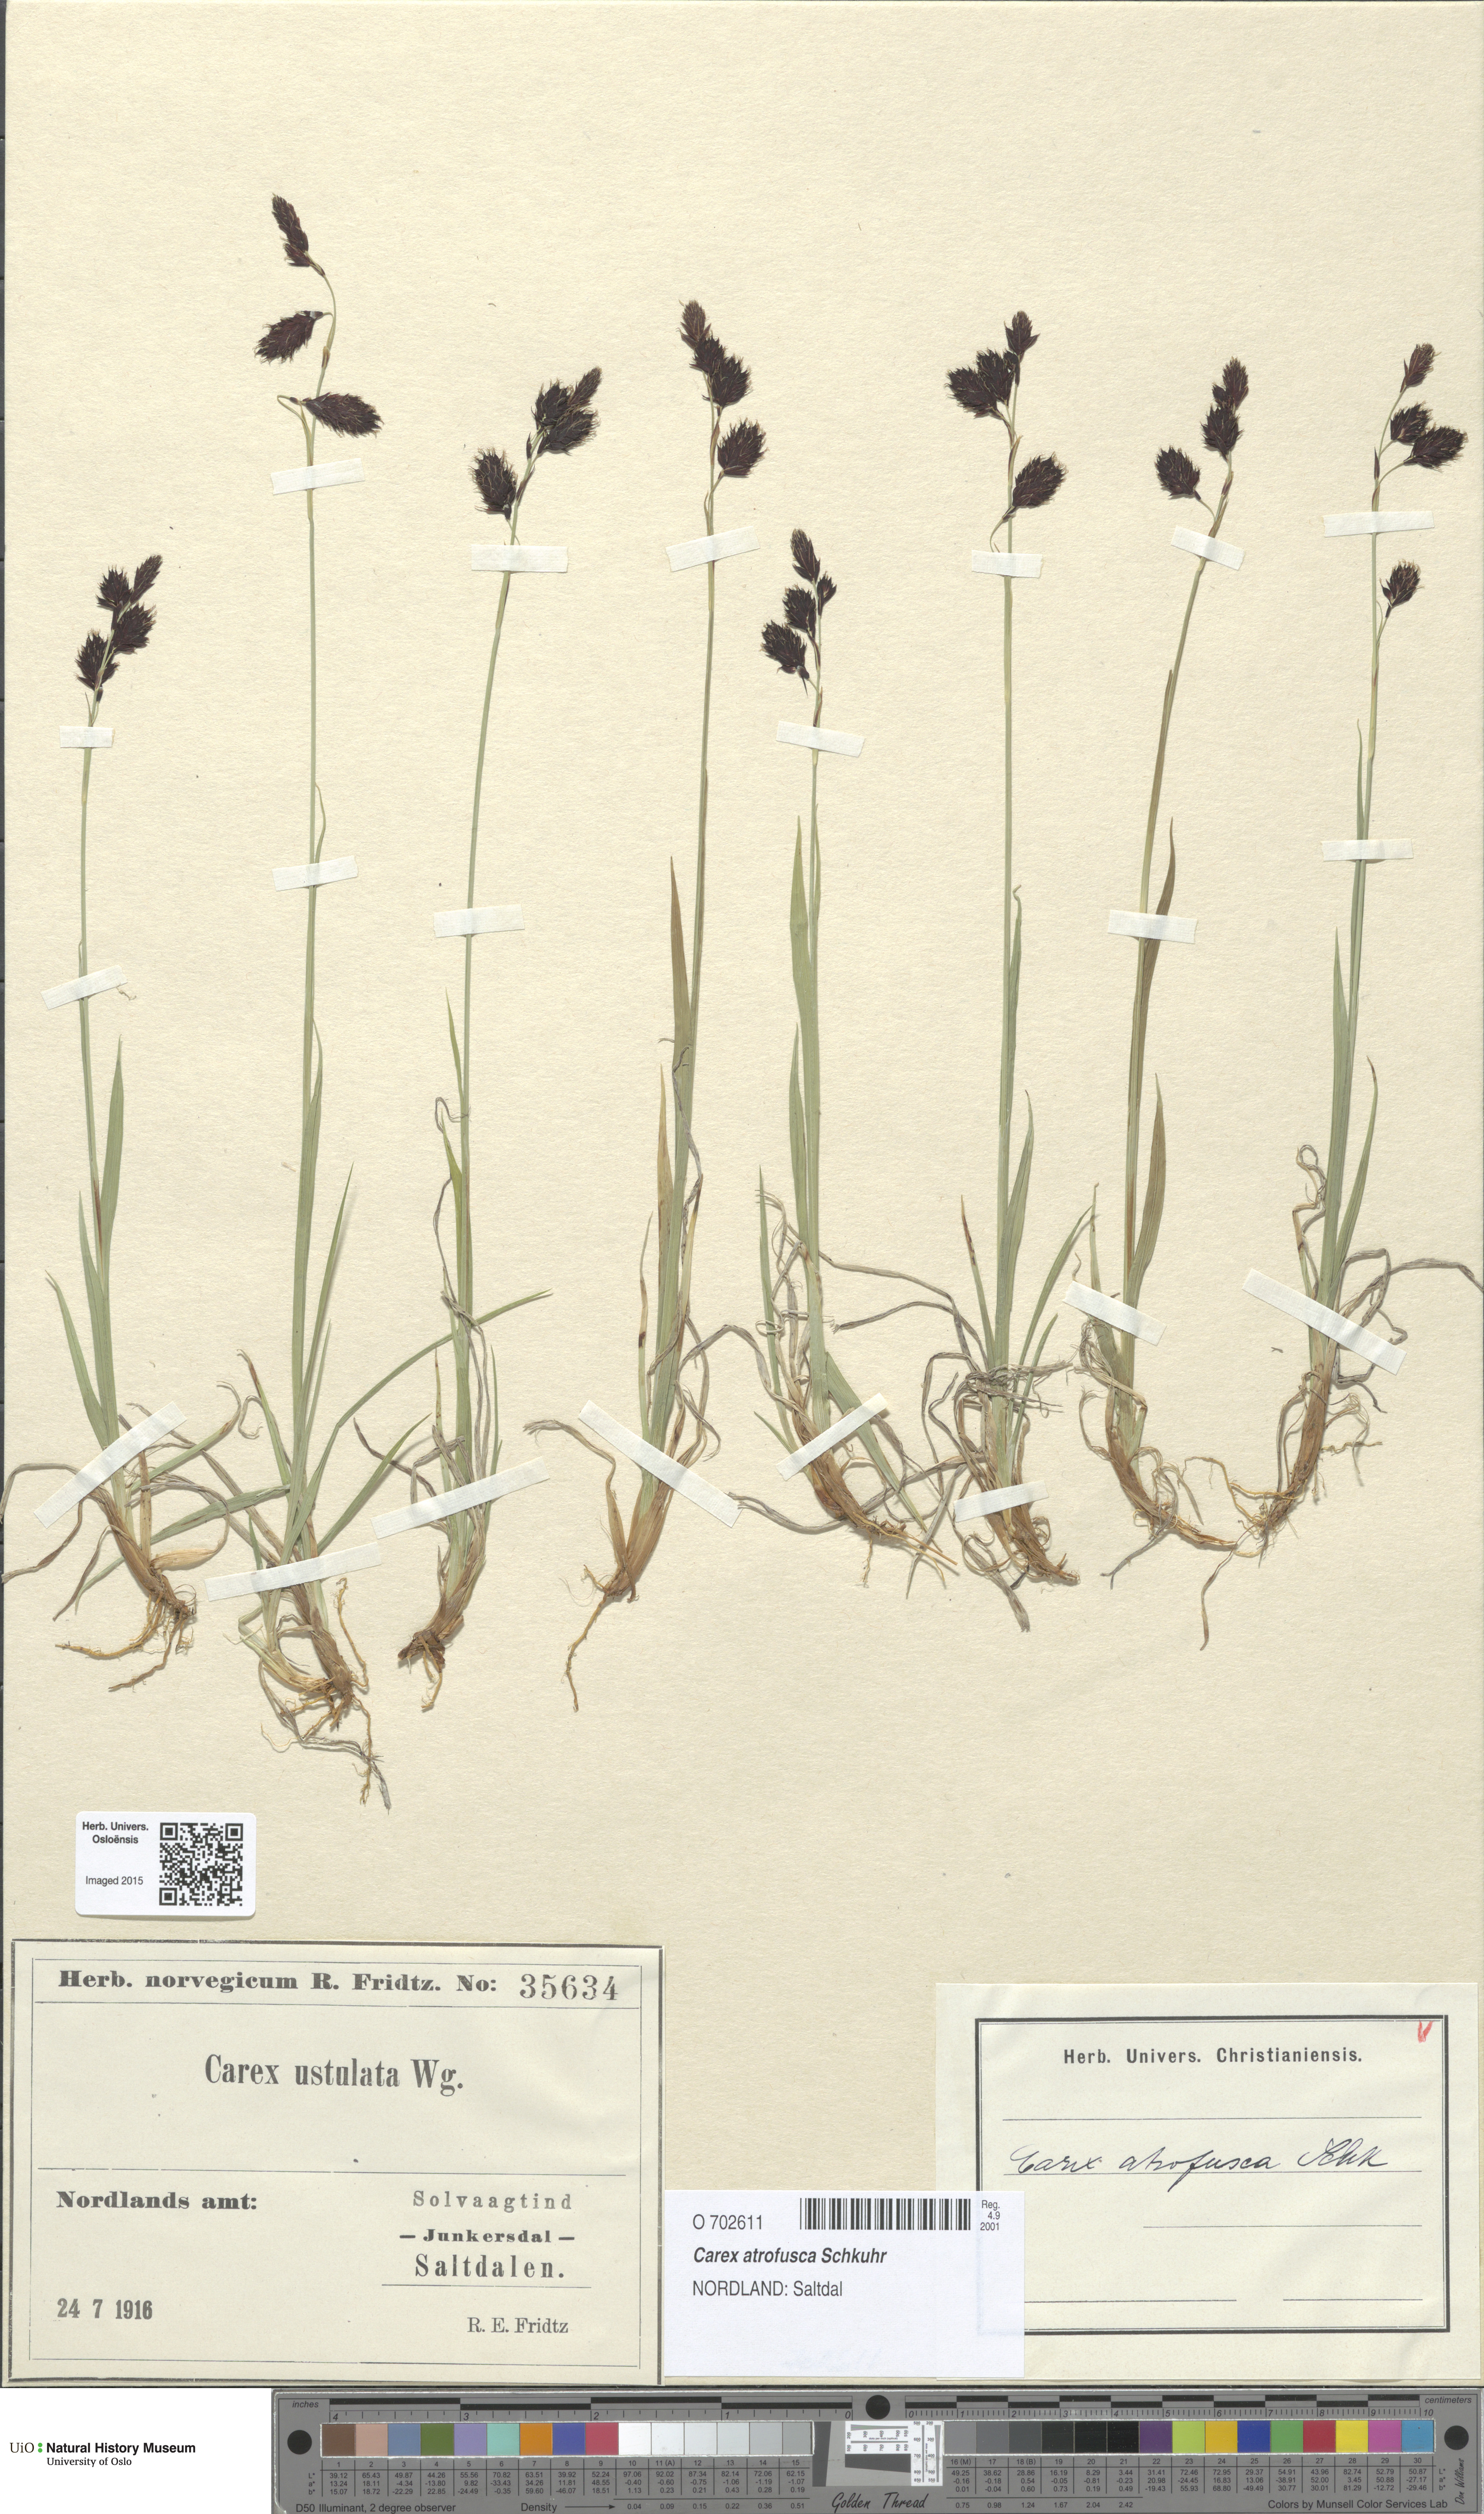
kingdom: Plantae
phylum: Tracheophyta
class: Liliopsida
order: Poales
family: Cyperaceae
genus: Carex
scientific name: Carex atrofusca
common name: Scorched alpine-sedge
